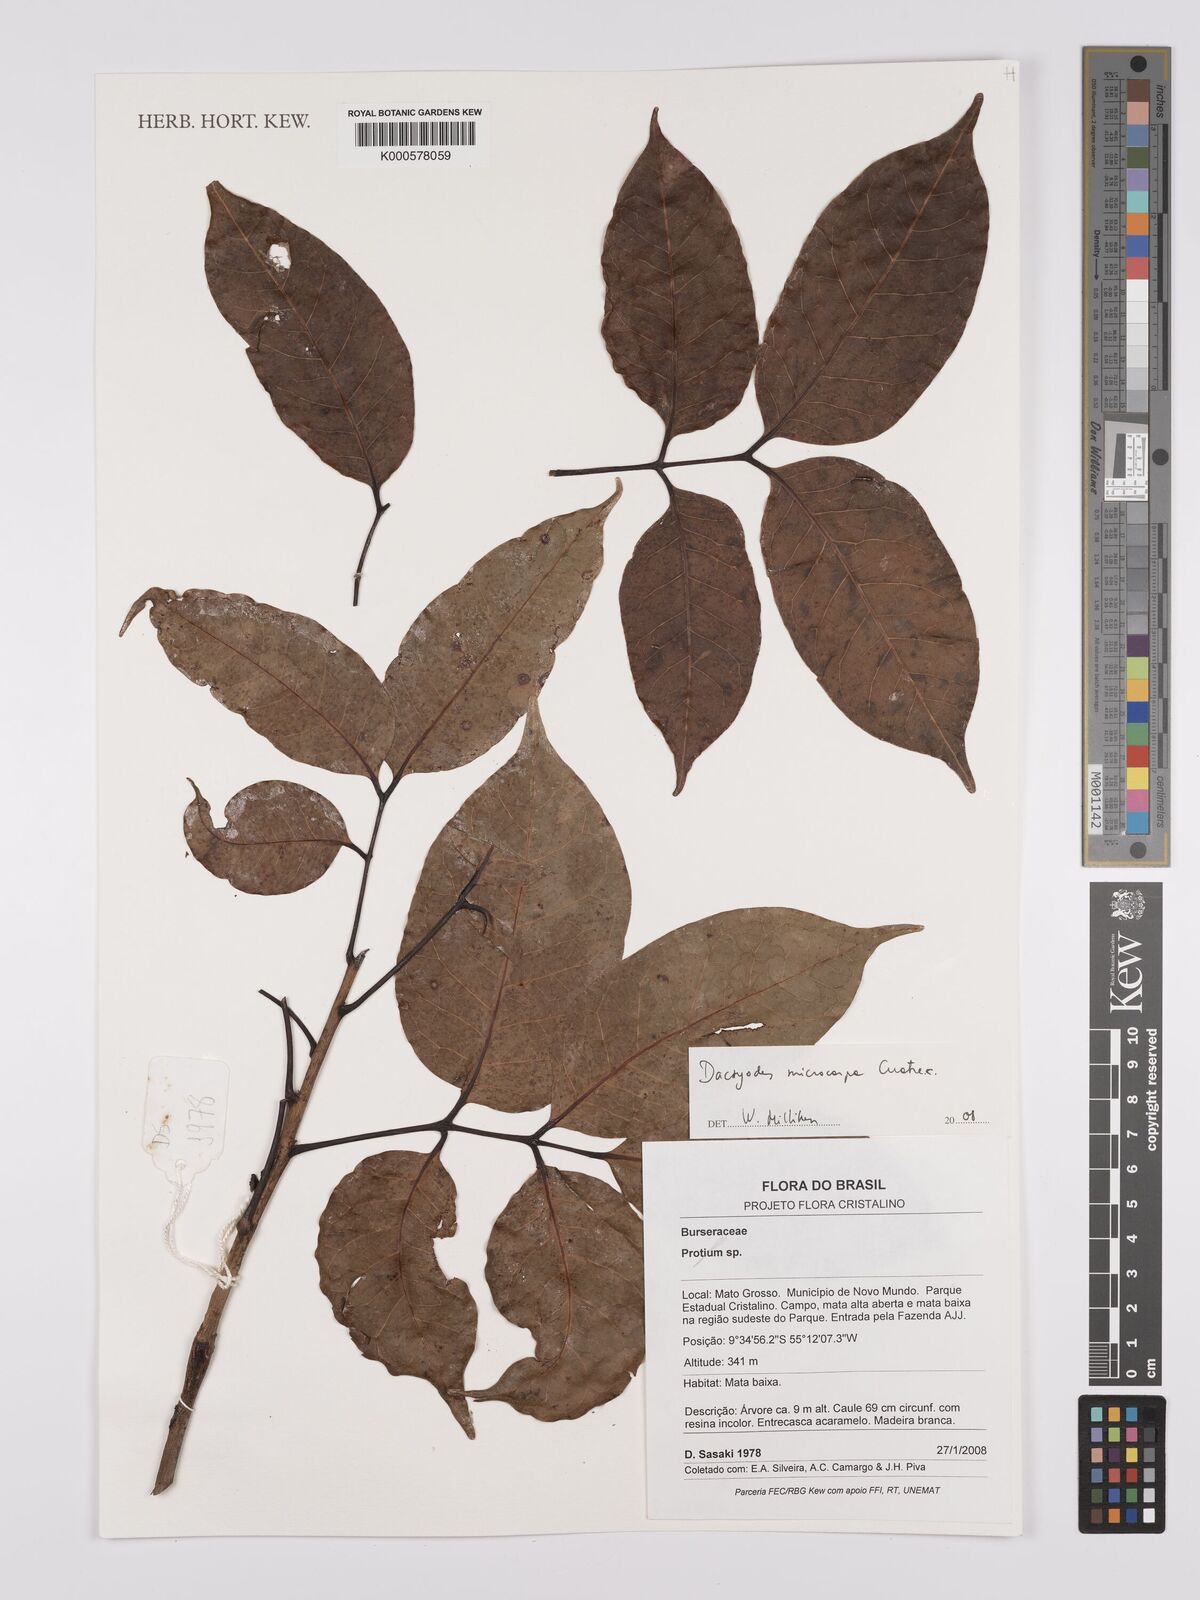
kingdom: Plantae
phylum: Tracheophyta
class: Magnoliopsida
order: Sapindales
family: Burseraceae
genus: Dacryodes
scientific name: Dacryodes microcarpa
